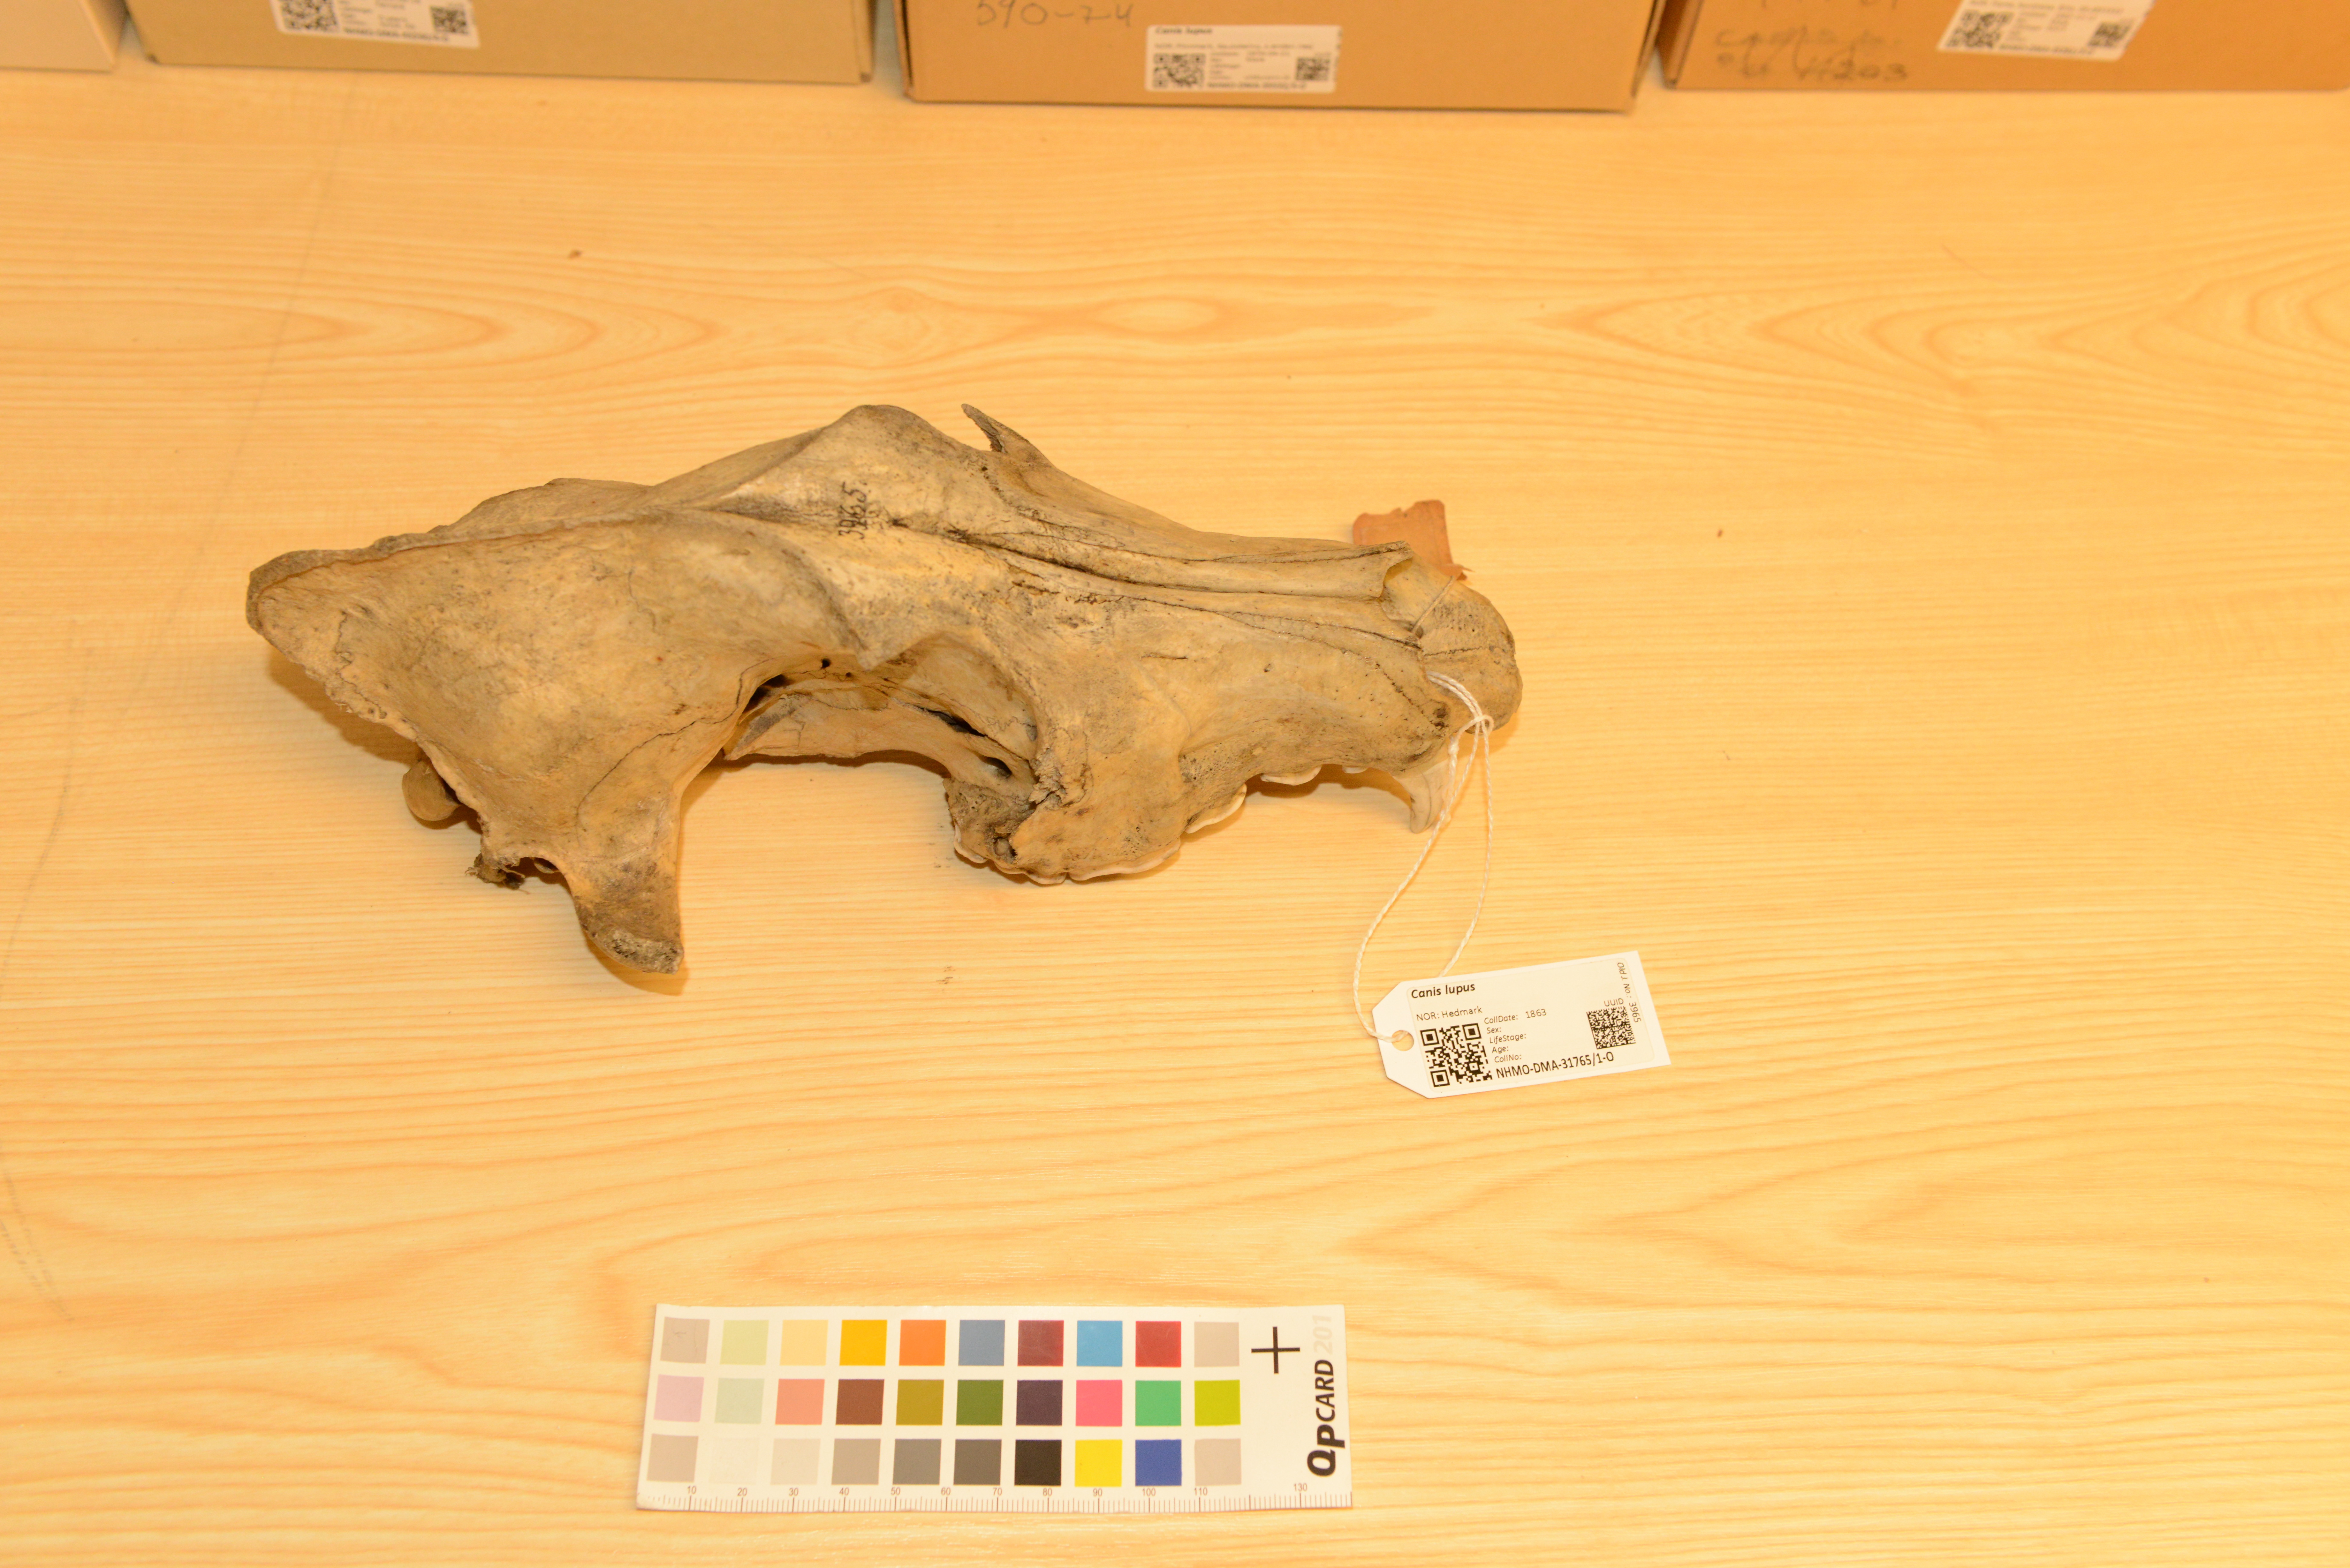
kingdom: Animalia
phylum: Chordata
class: Mammalia
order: Carnivora
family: Canidae
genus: Canis
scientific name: Canis lupus
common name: Gray wolf
